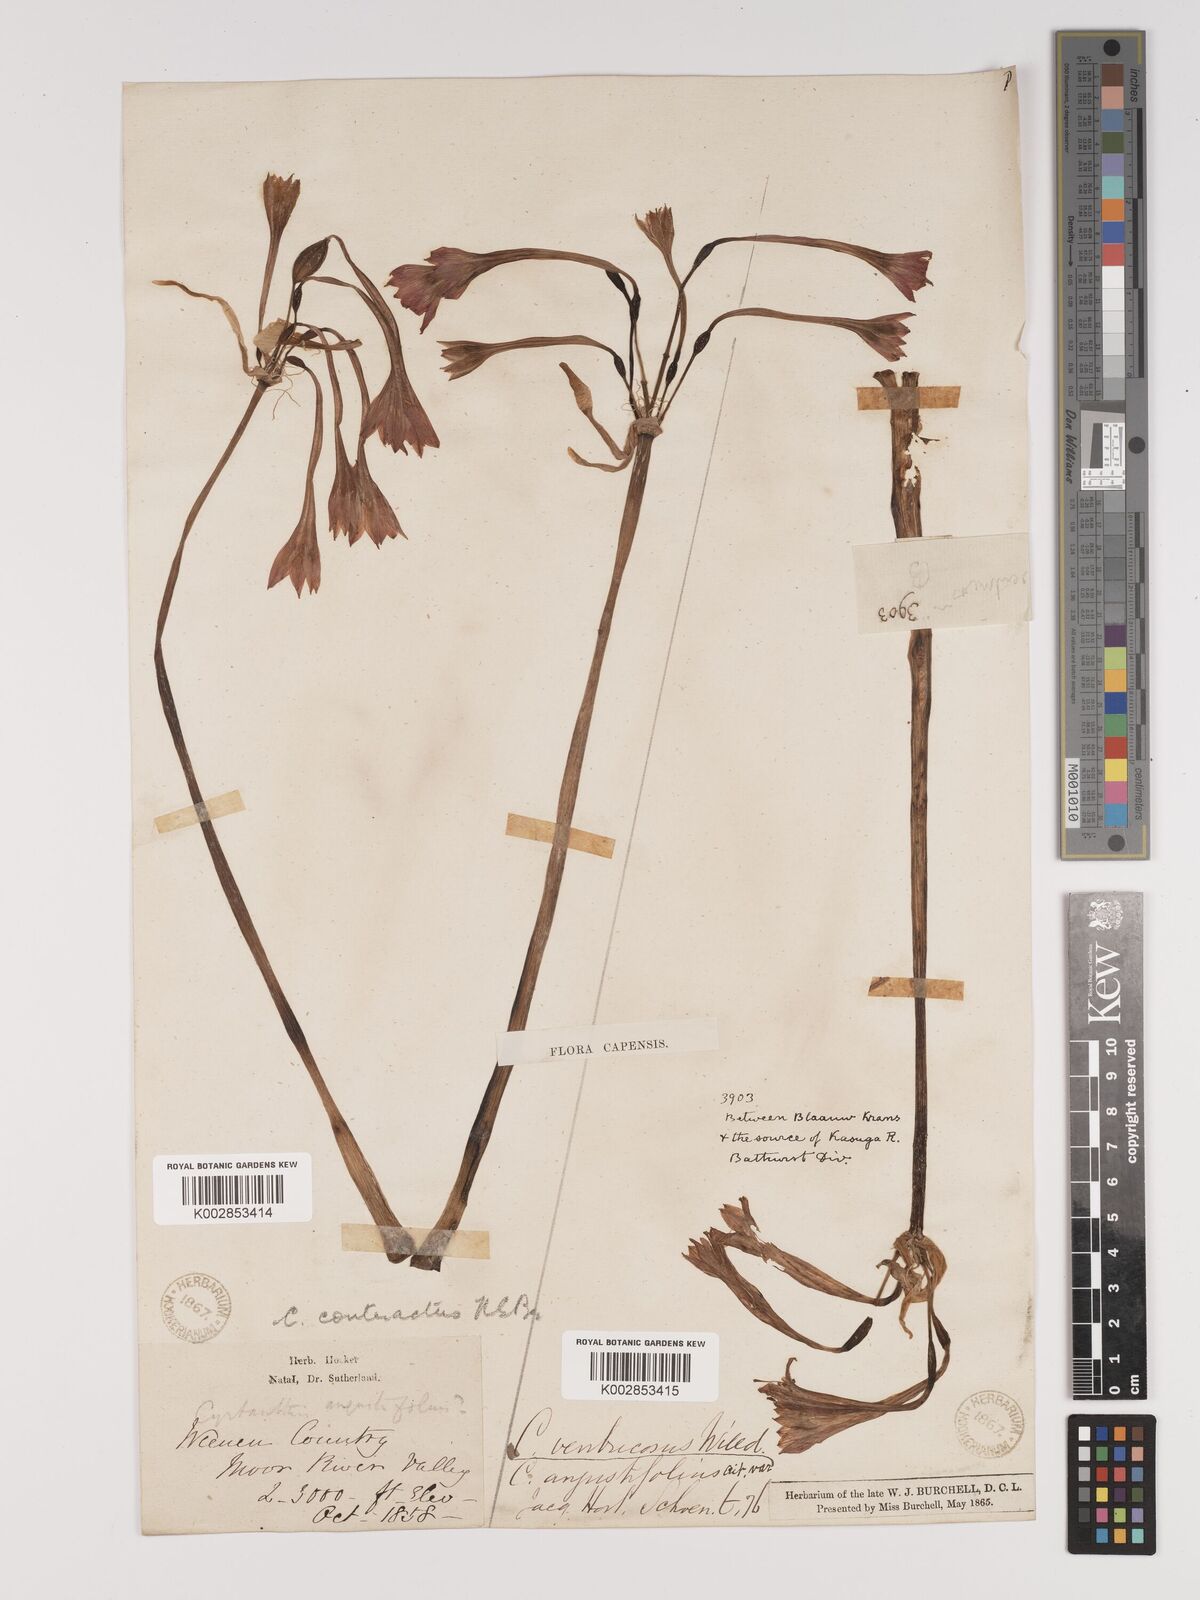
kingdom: Plantae
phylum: Tracheophyta
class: Liliopsida
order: Asparagales
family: Amaryllidaceae
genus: Cyrtanthus
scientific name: Cyrtanthus contractus
